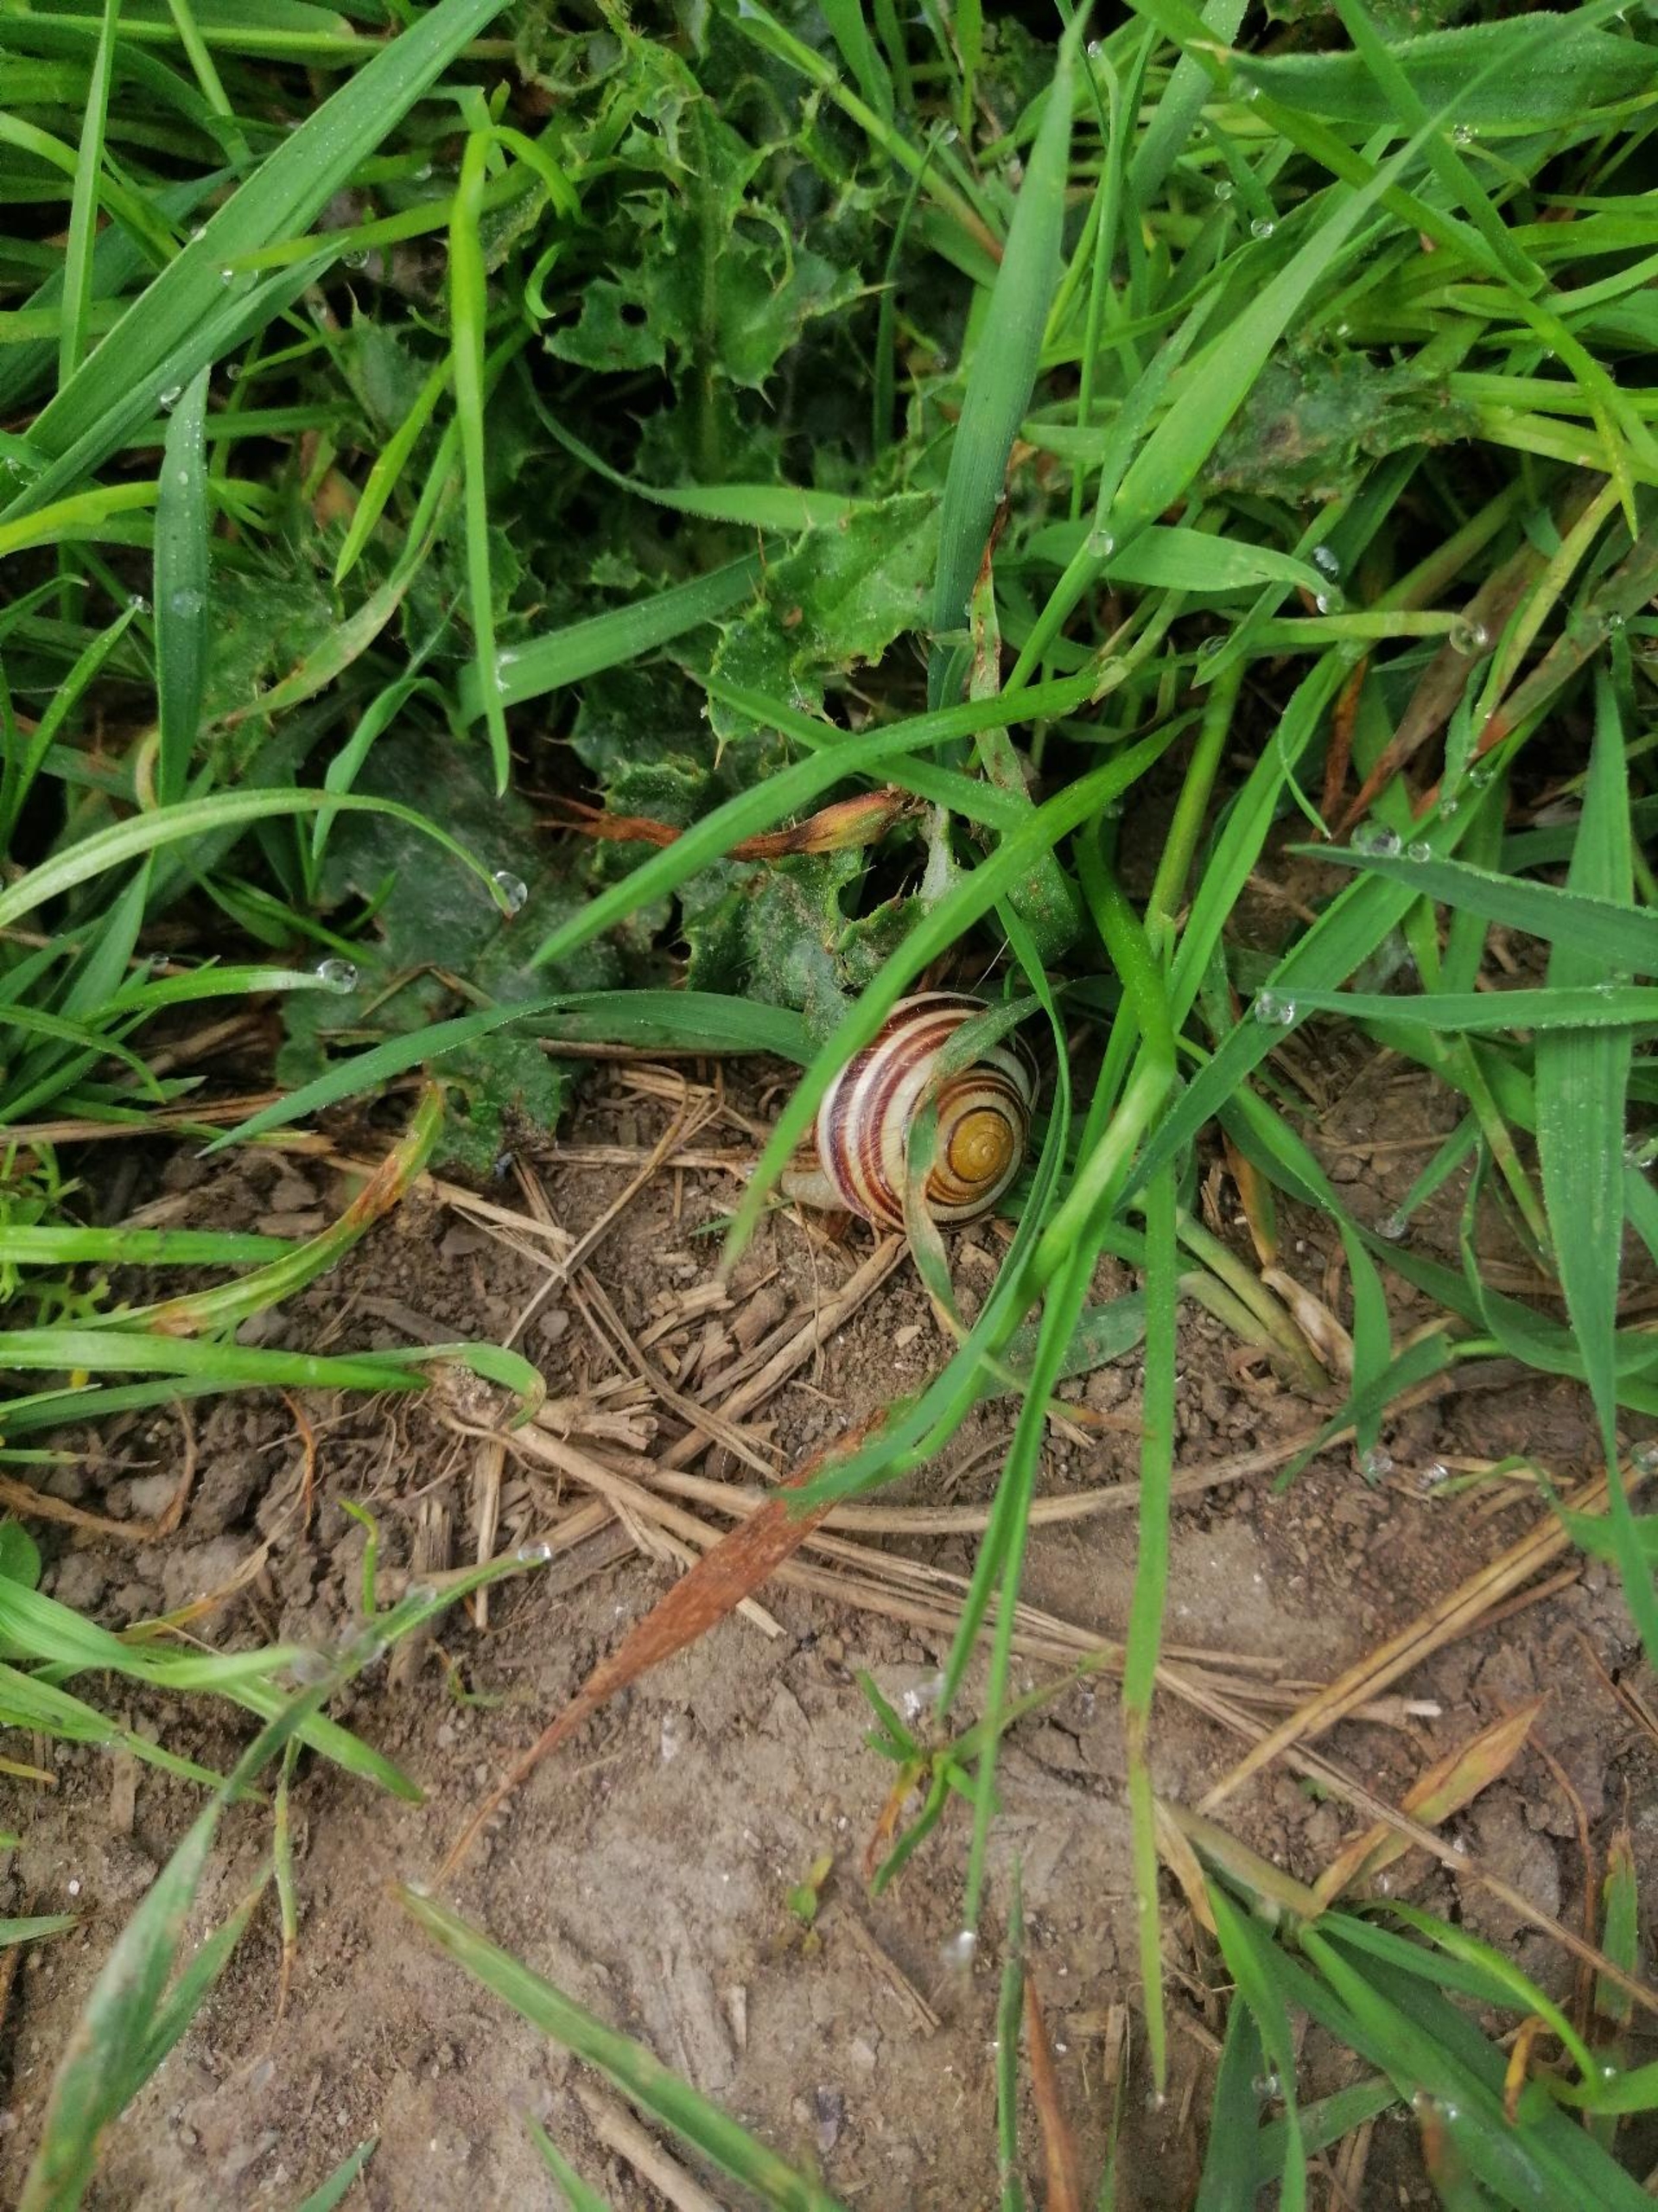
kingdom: Animalia
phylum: Mollusca
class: Gastropoda
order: Stylommatophora
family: Helicidae
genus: Cepaea
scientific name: Cepaea hortensis
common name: Havesnegl
